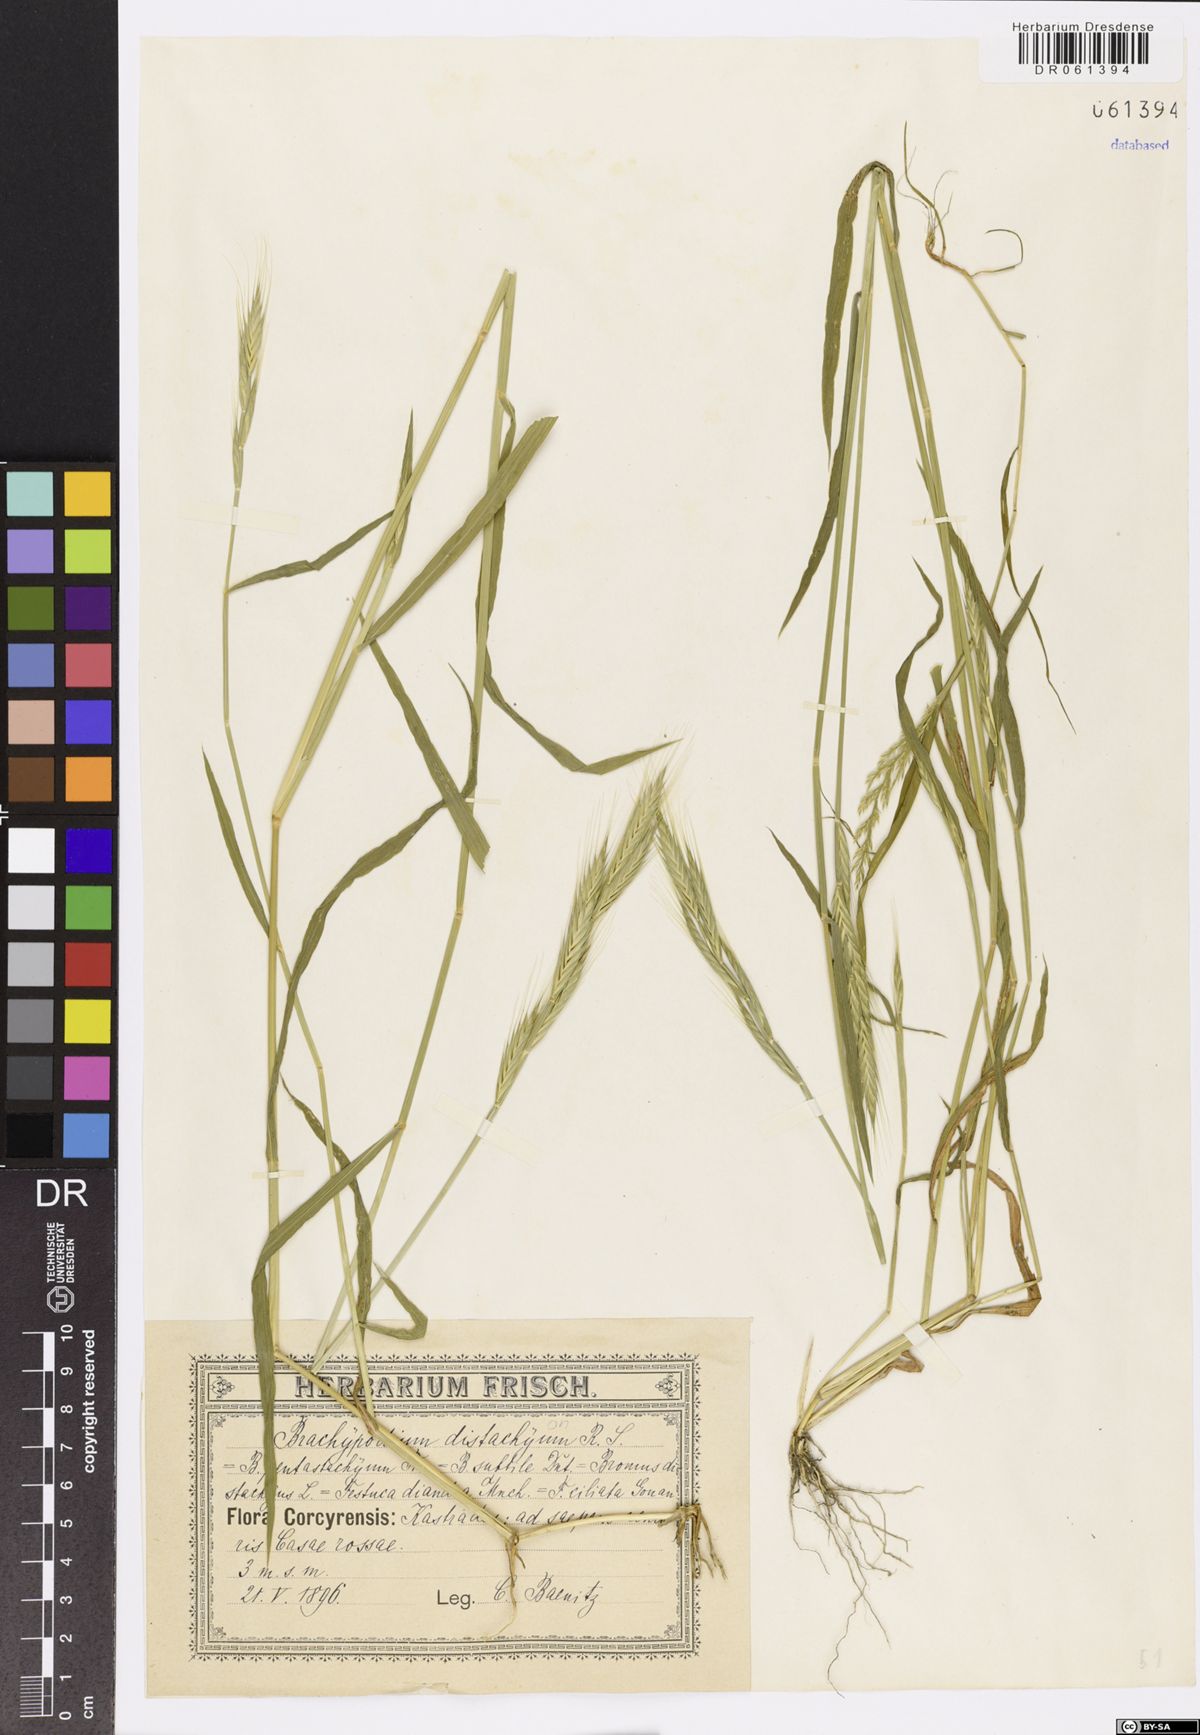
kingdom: Plantae
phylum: Tracheophyta
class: Liliopsida
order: Poales
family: Poaceae
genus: Brachypodium
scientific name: Brachypodium distachyon
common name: Stiff brome
